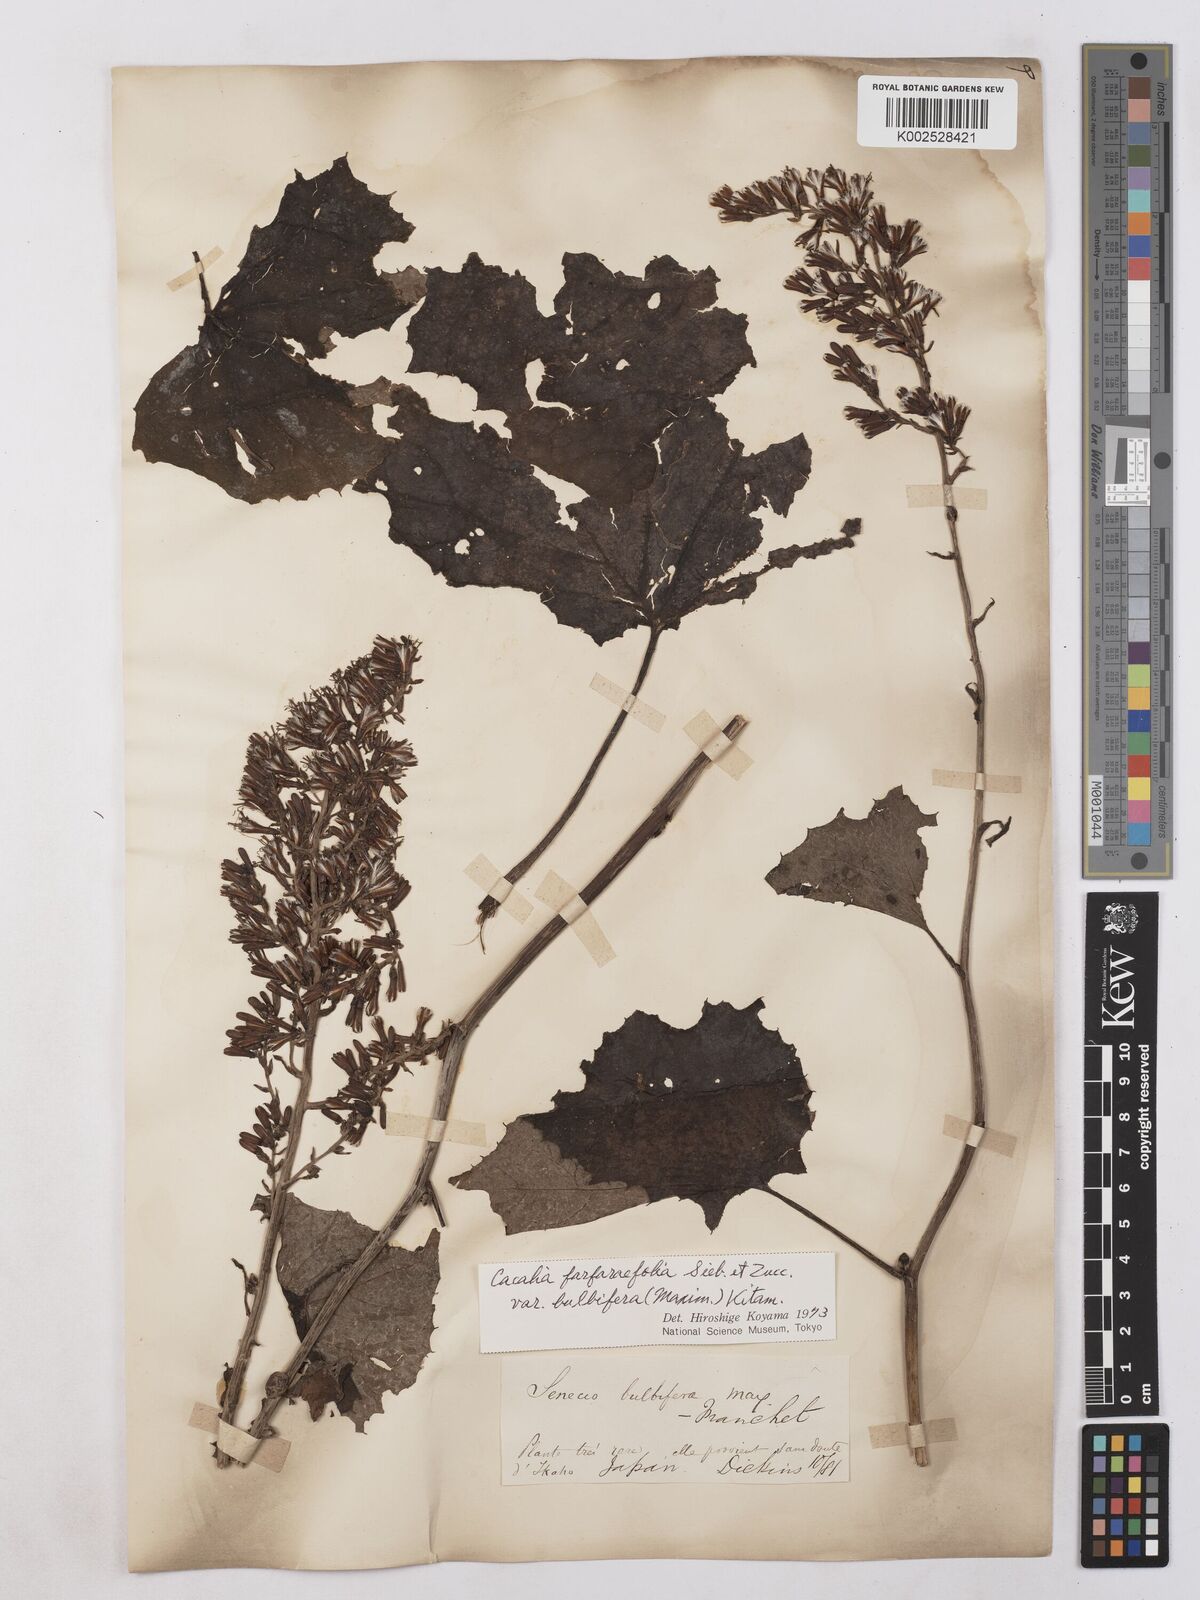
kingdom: Plantae
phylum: Tracheophyta
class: Magnoliopsida
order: Asterales
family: Asteraceae
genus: Parasenecio
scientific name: Parasenecio bulbiferoides
